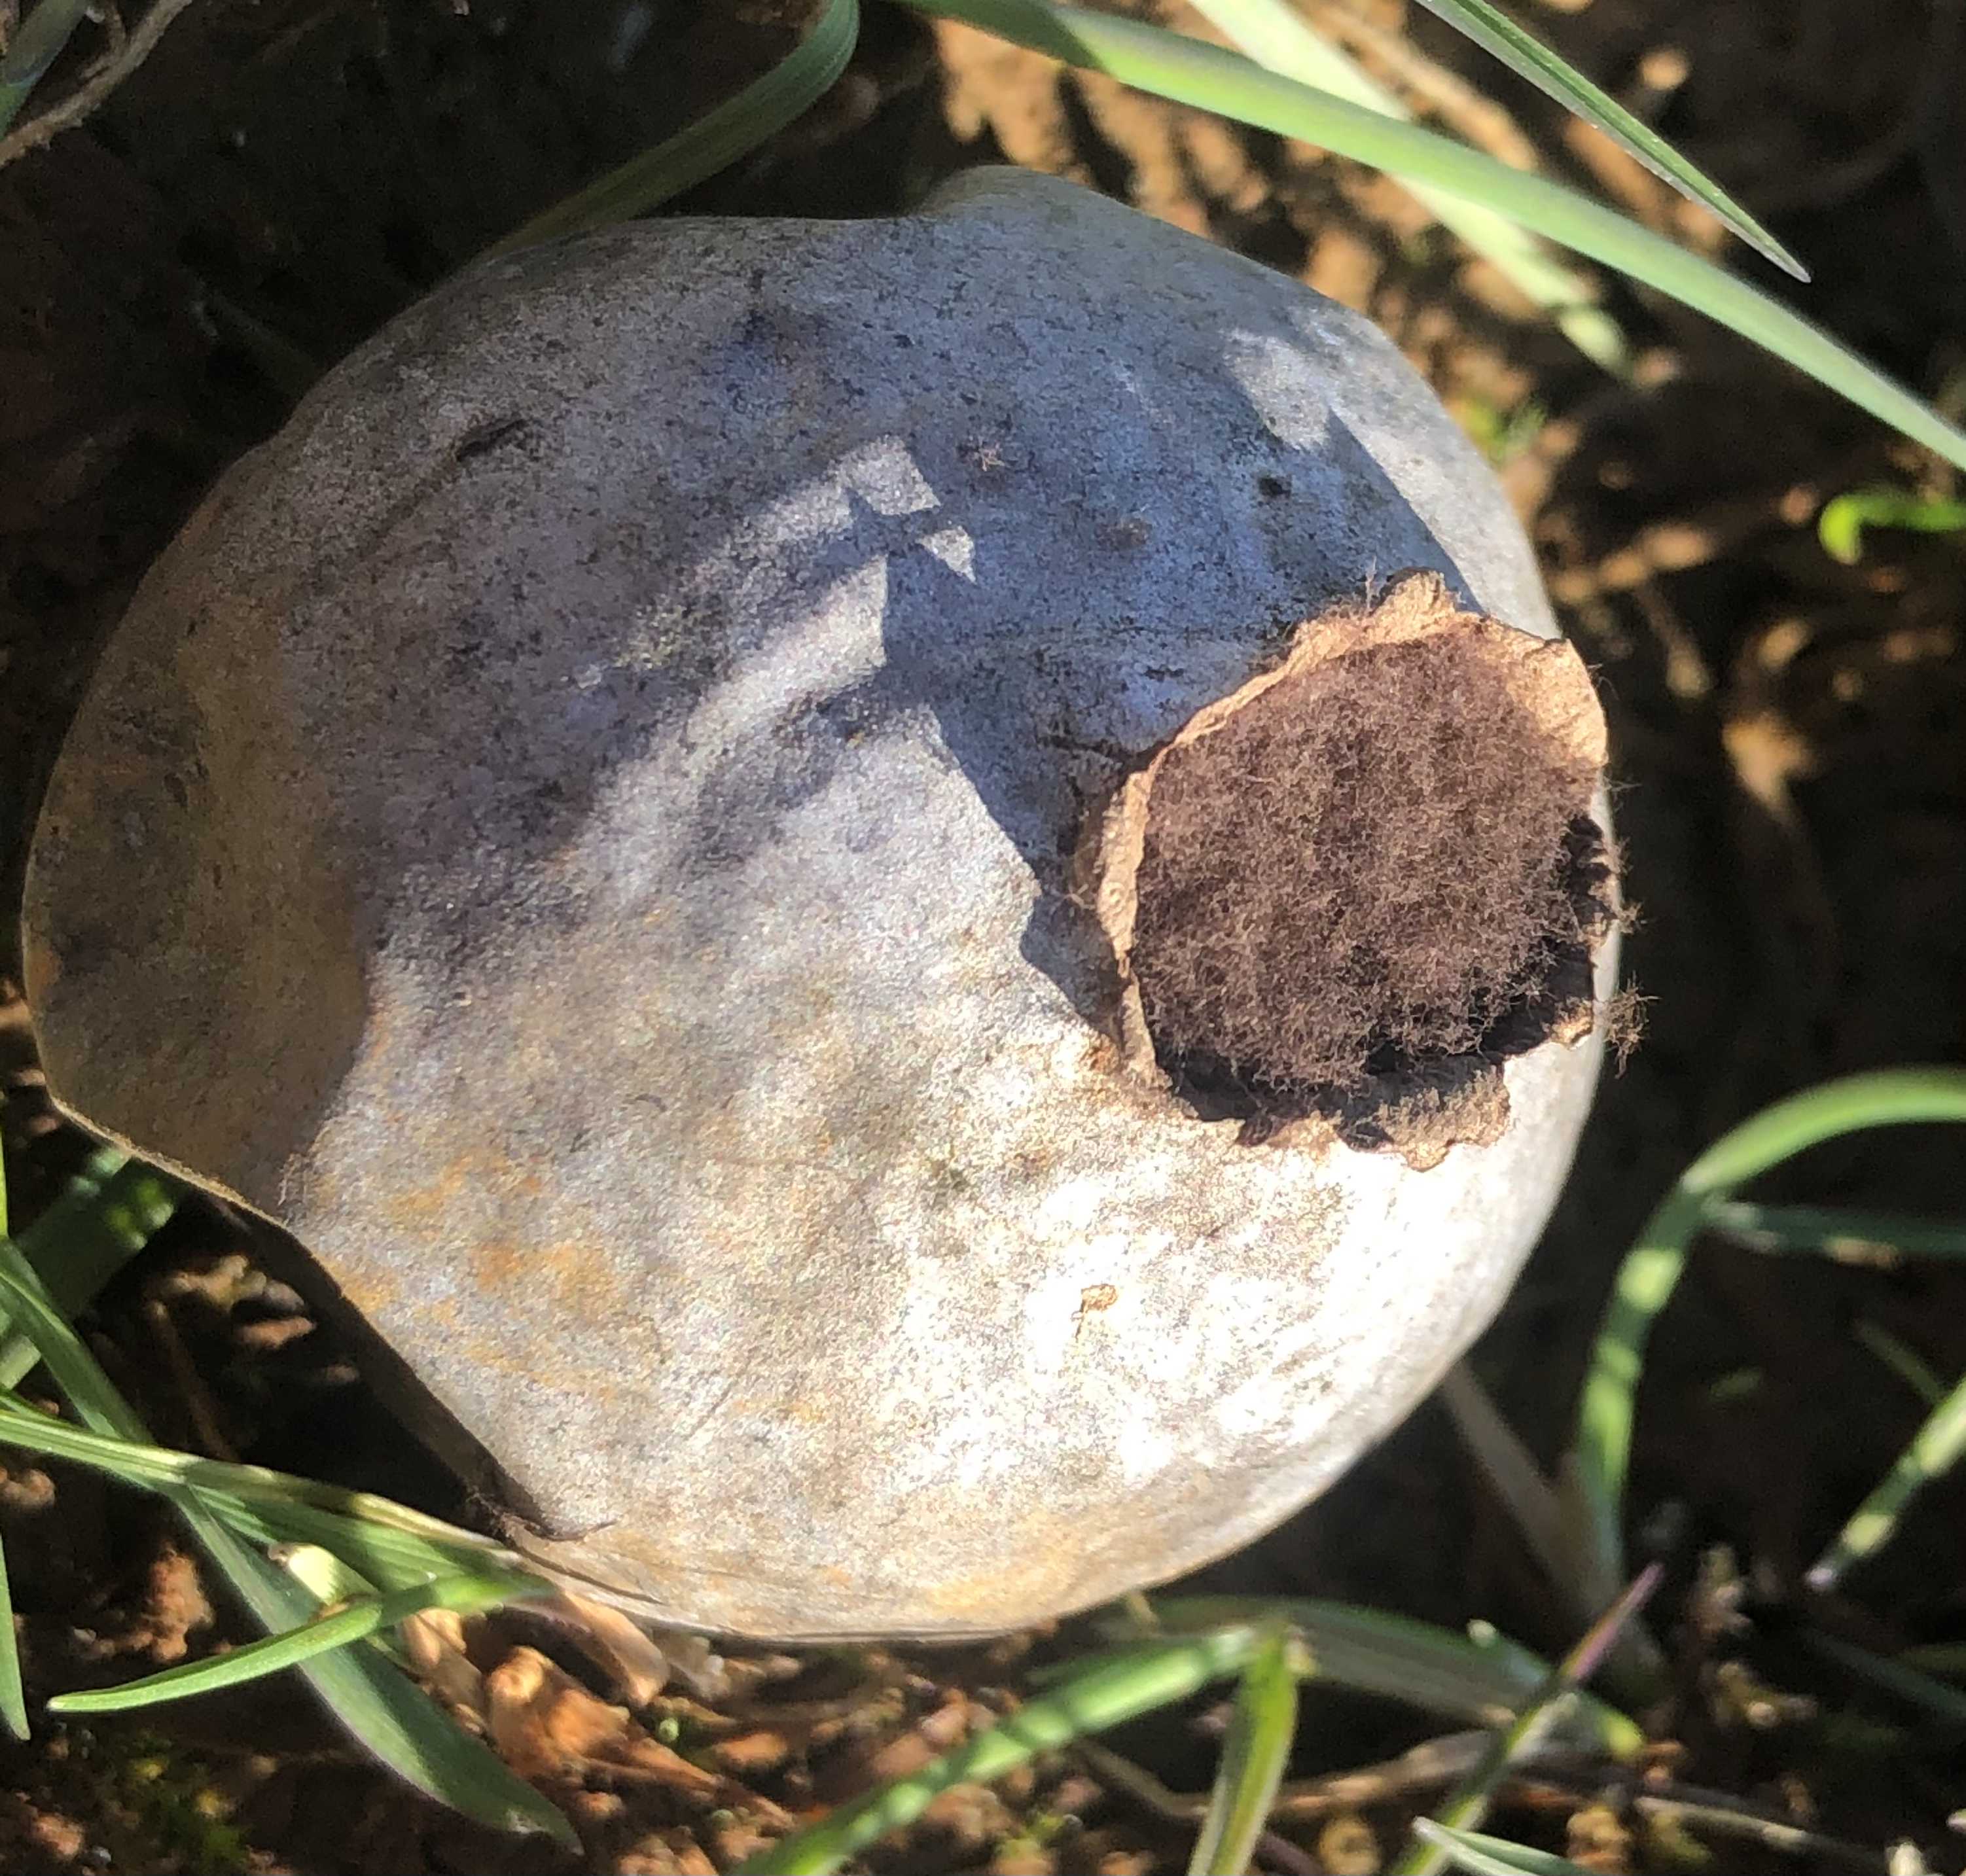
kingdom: Fungi
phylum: Basidiomycota
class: Agaricomycetes
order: Agaricales
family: Lycoperdaceae
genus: Bovista
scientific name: Bovista plumbea
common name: blygrå bovist
